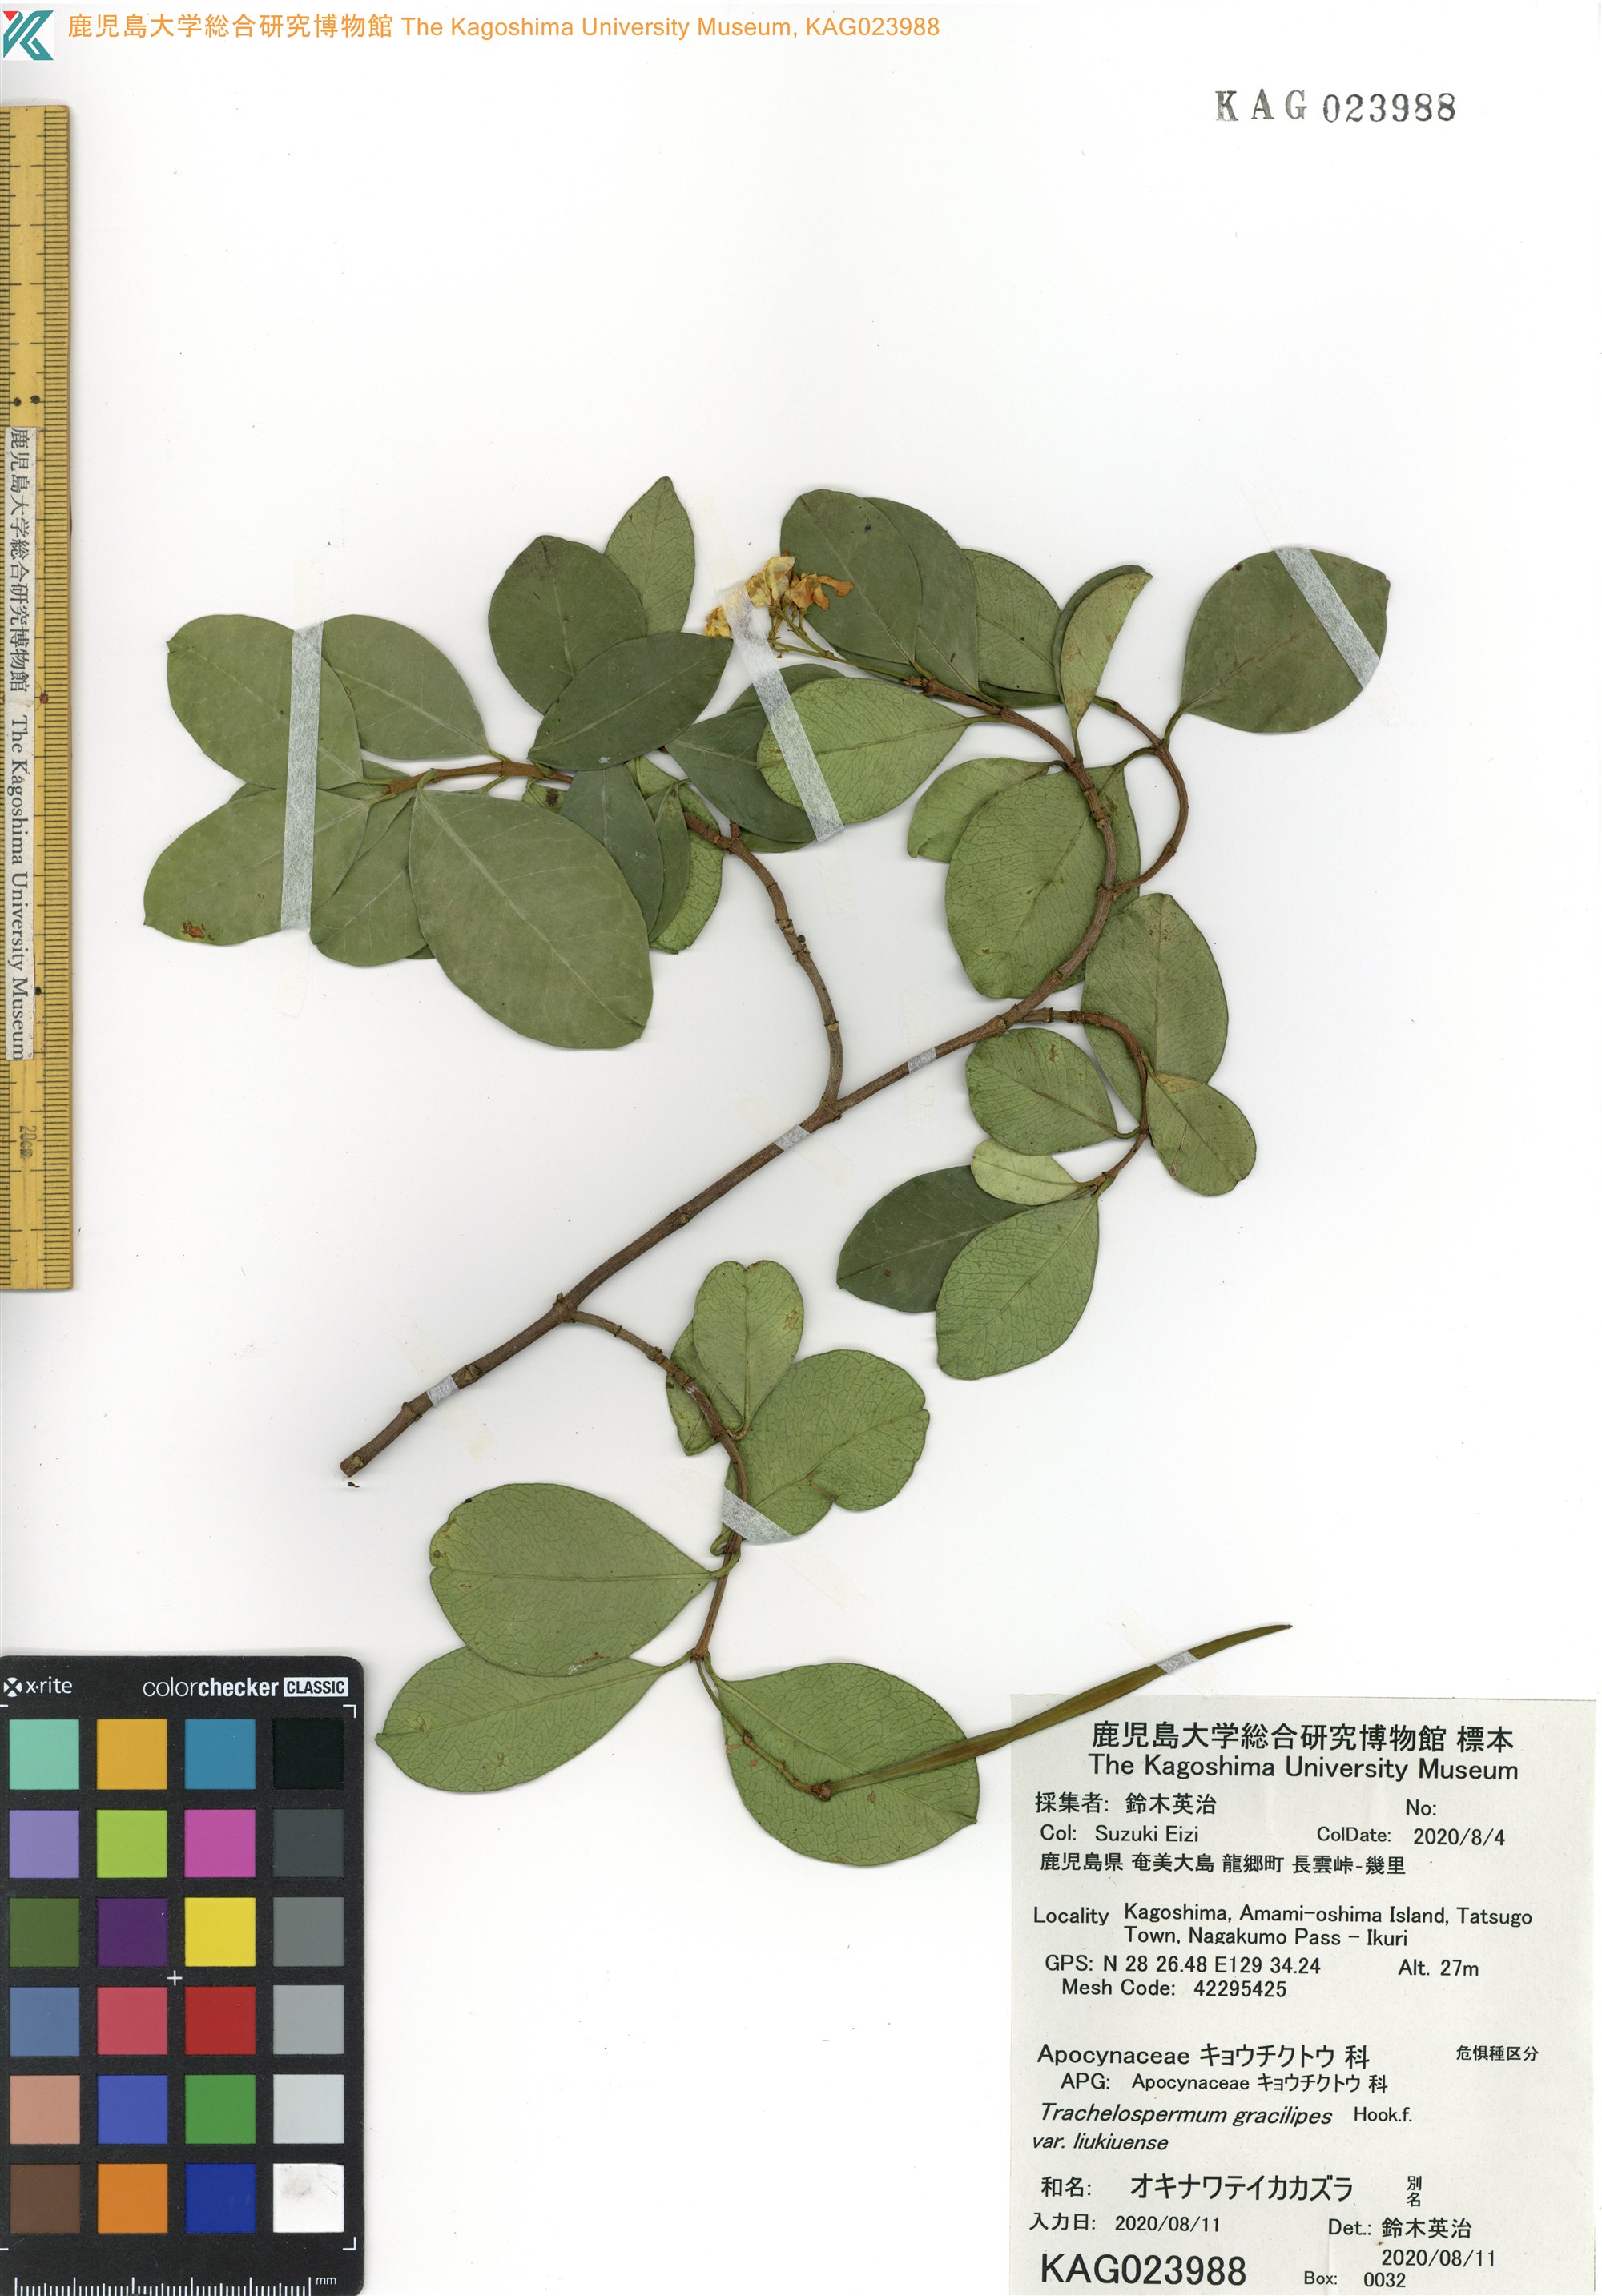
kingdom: Plantae
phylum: Tracheophyta
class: Magnoliopsida
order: Gentianales
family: Apocynaceae
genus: Trachelospermum
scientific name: Trachelospermum gracilipes
